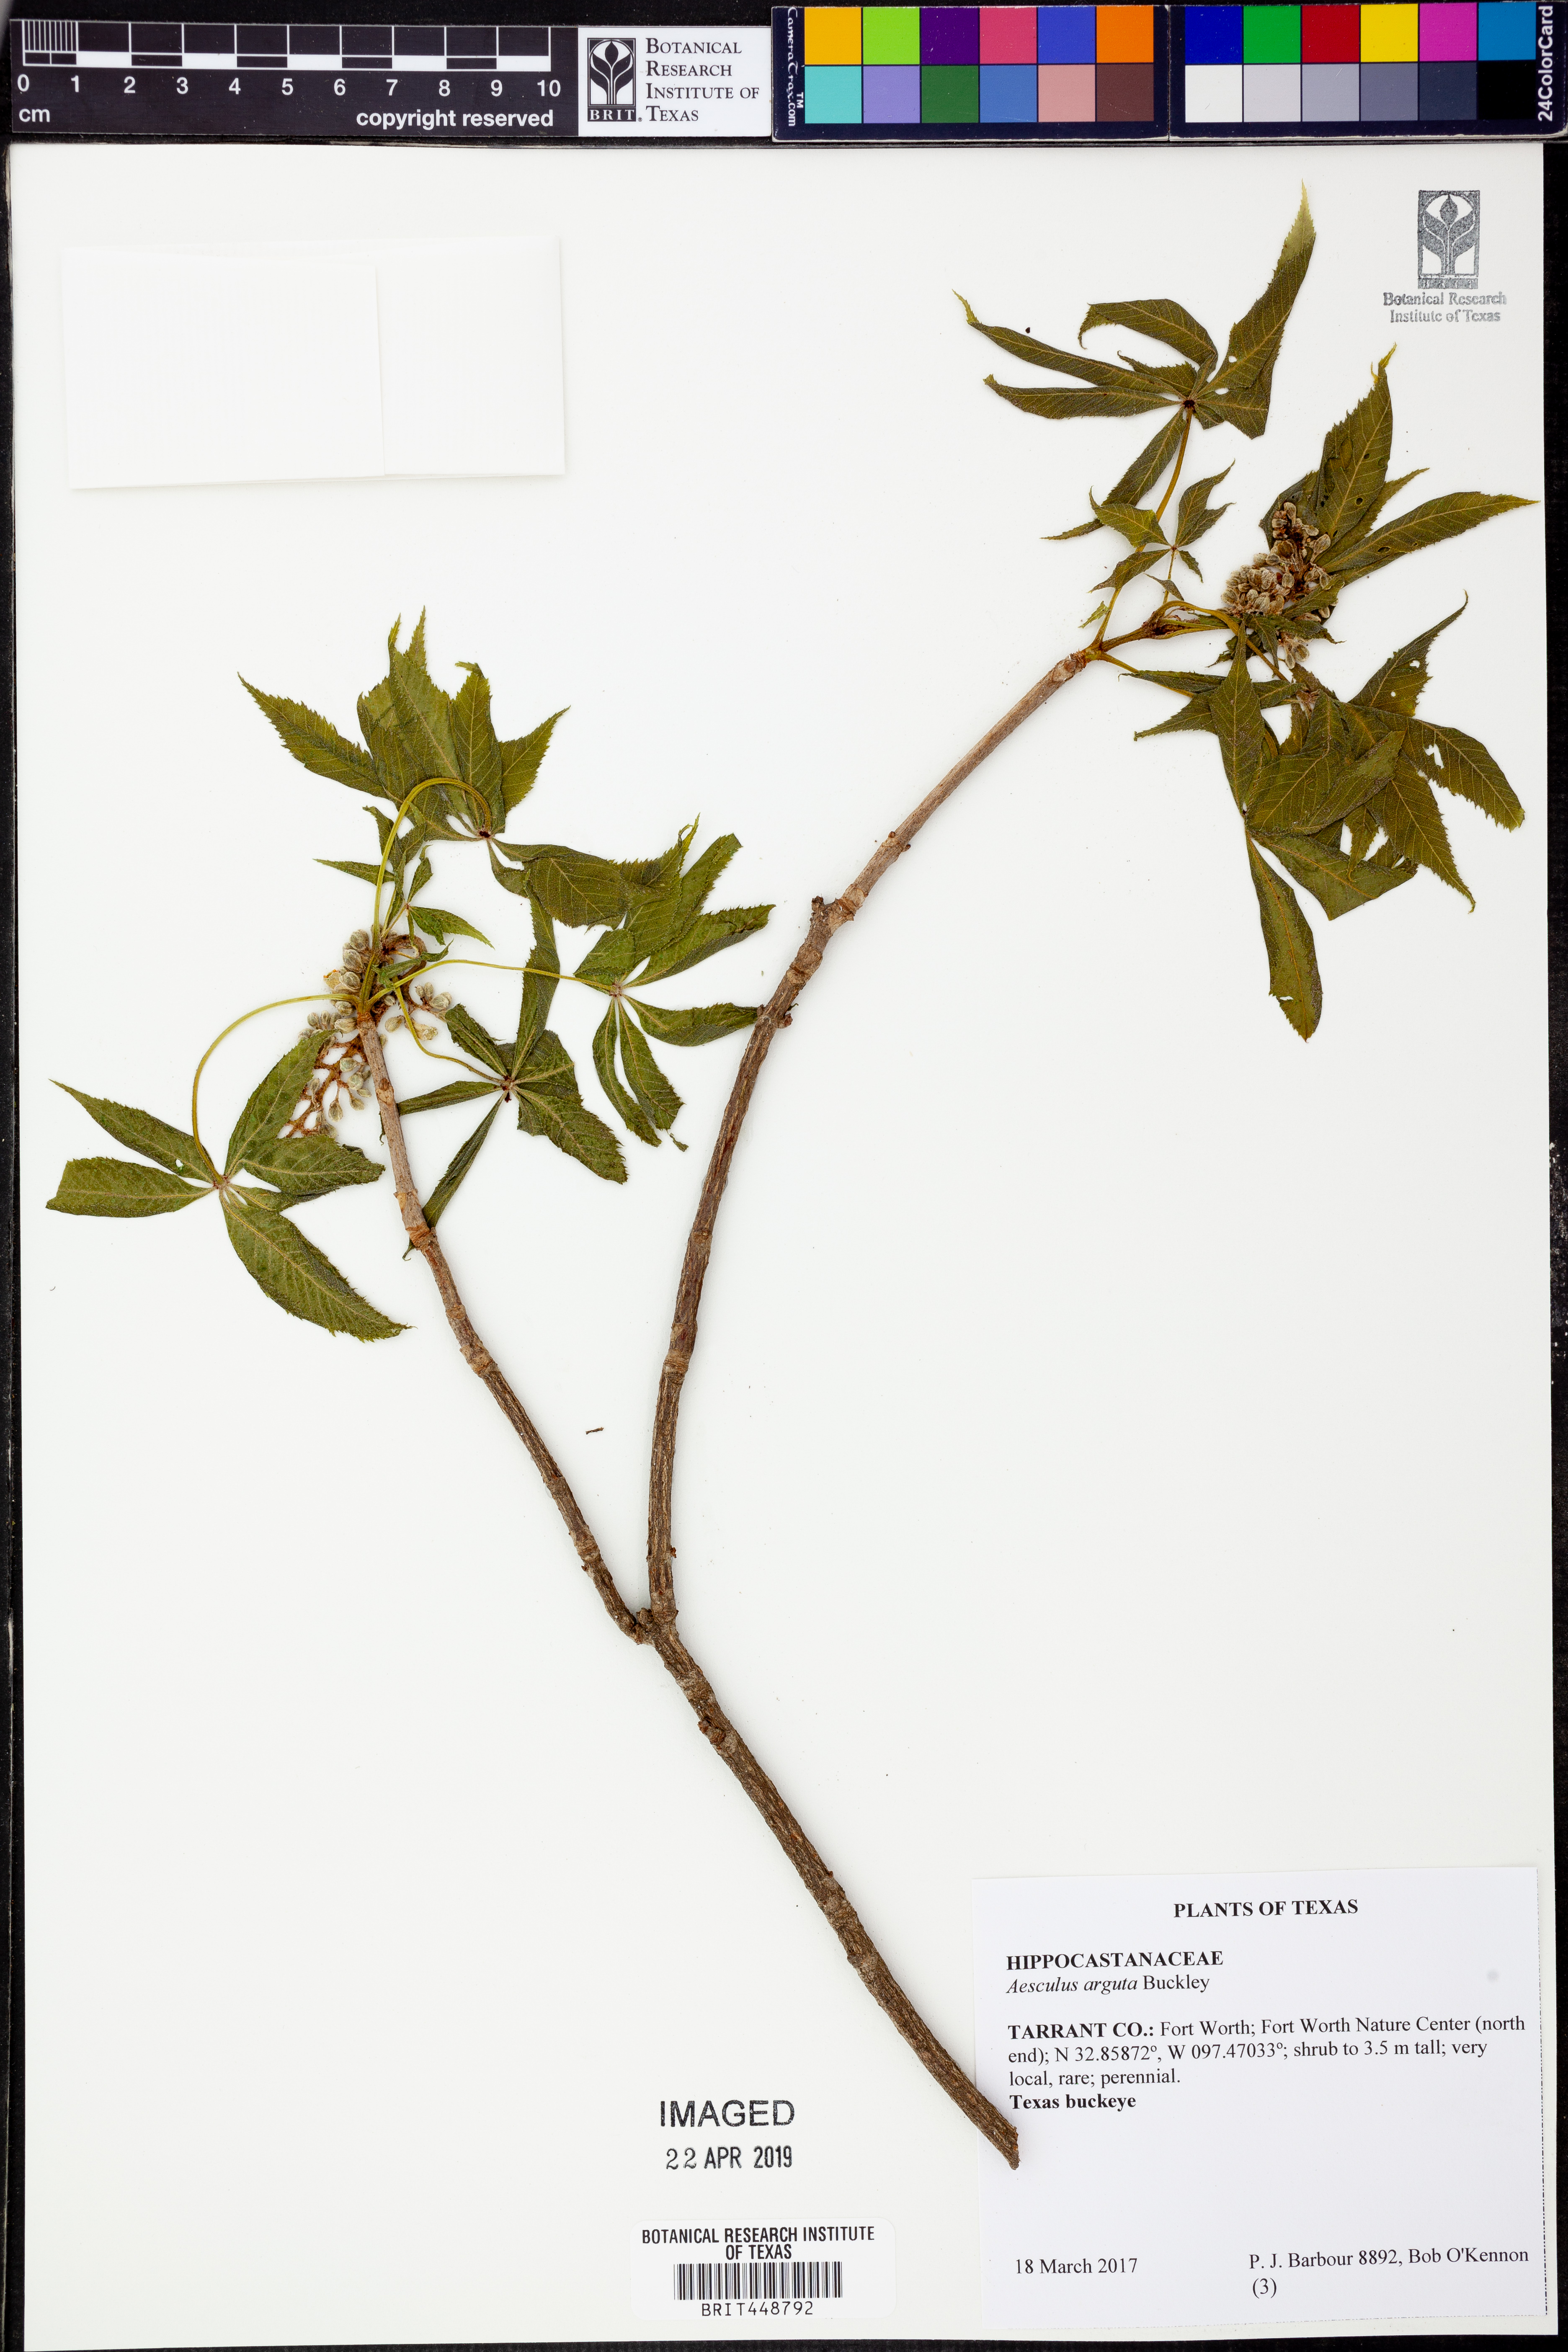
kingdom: Plantae
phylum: Tracheophyta
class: Magnoliopsida
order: Sapindales
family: Sapindaceae
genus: Aesculus
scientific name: Aesculus glabra
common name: Ohio buckeye
